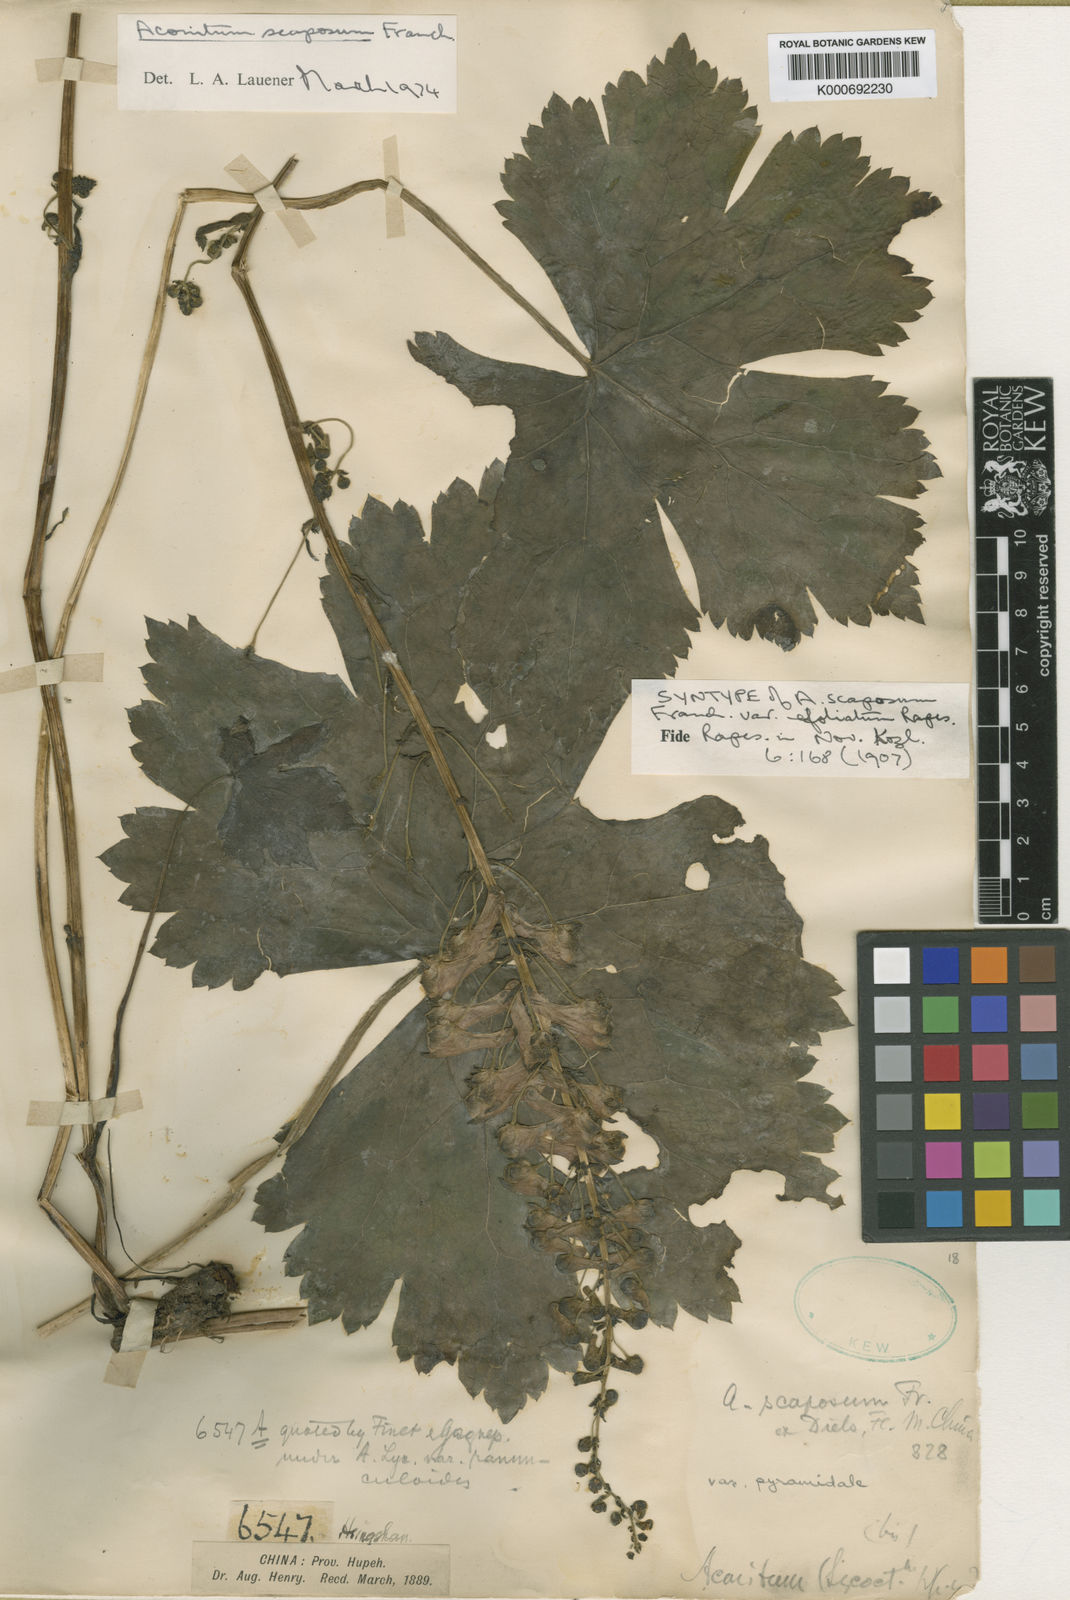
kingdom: Plantae
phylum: Tracheophyta
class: Magnoliopsida
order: Ranunculales
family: Ranunculaceae
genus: Aconitum
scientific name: Aconitum scaposum
